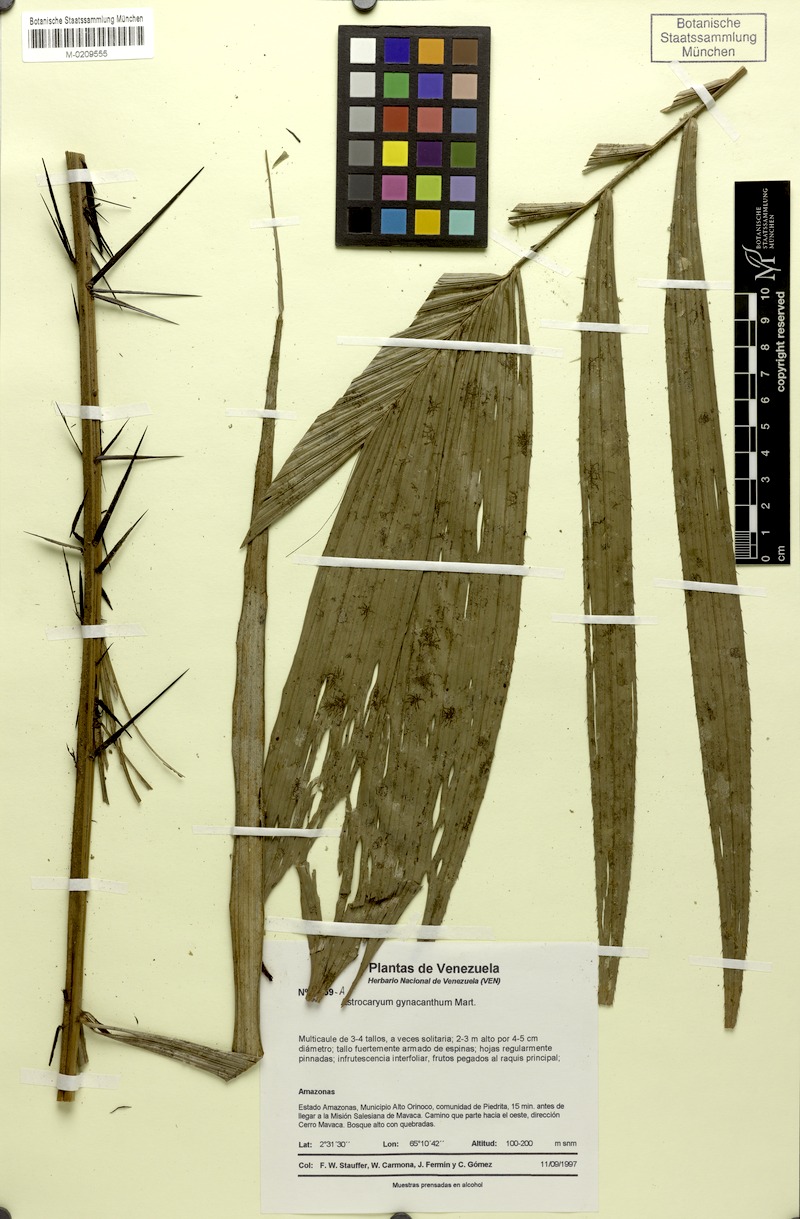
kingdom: Plantae
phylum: Tracheophyta
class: Liliopsida
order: Arecales
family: Arecaceae
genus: Astrocaryum
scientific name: Astrocaryum aculeatum
